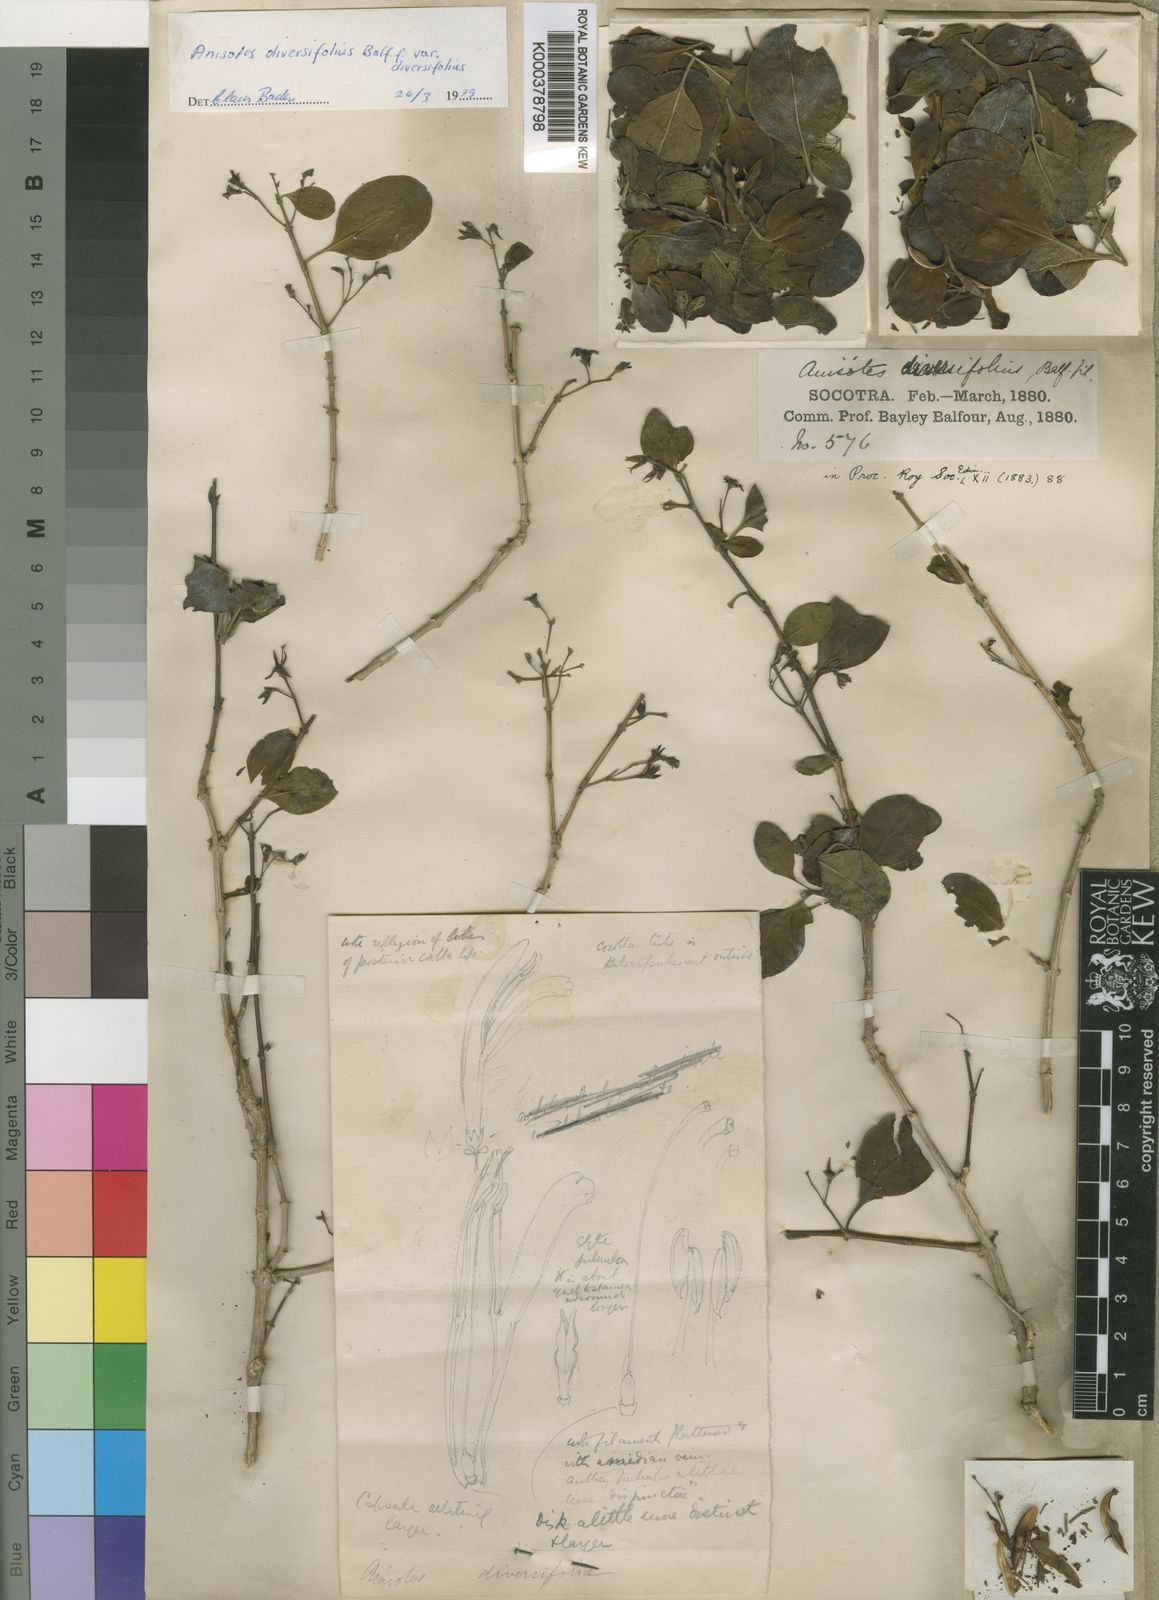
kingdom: Plantae
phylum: Tracheophyta
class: Magnoliopsida
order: Lamiales
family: Acanthaceae
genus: Anisotes
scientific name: Anisotes diversifolius
